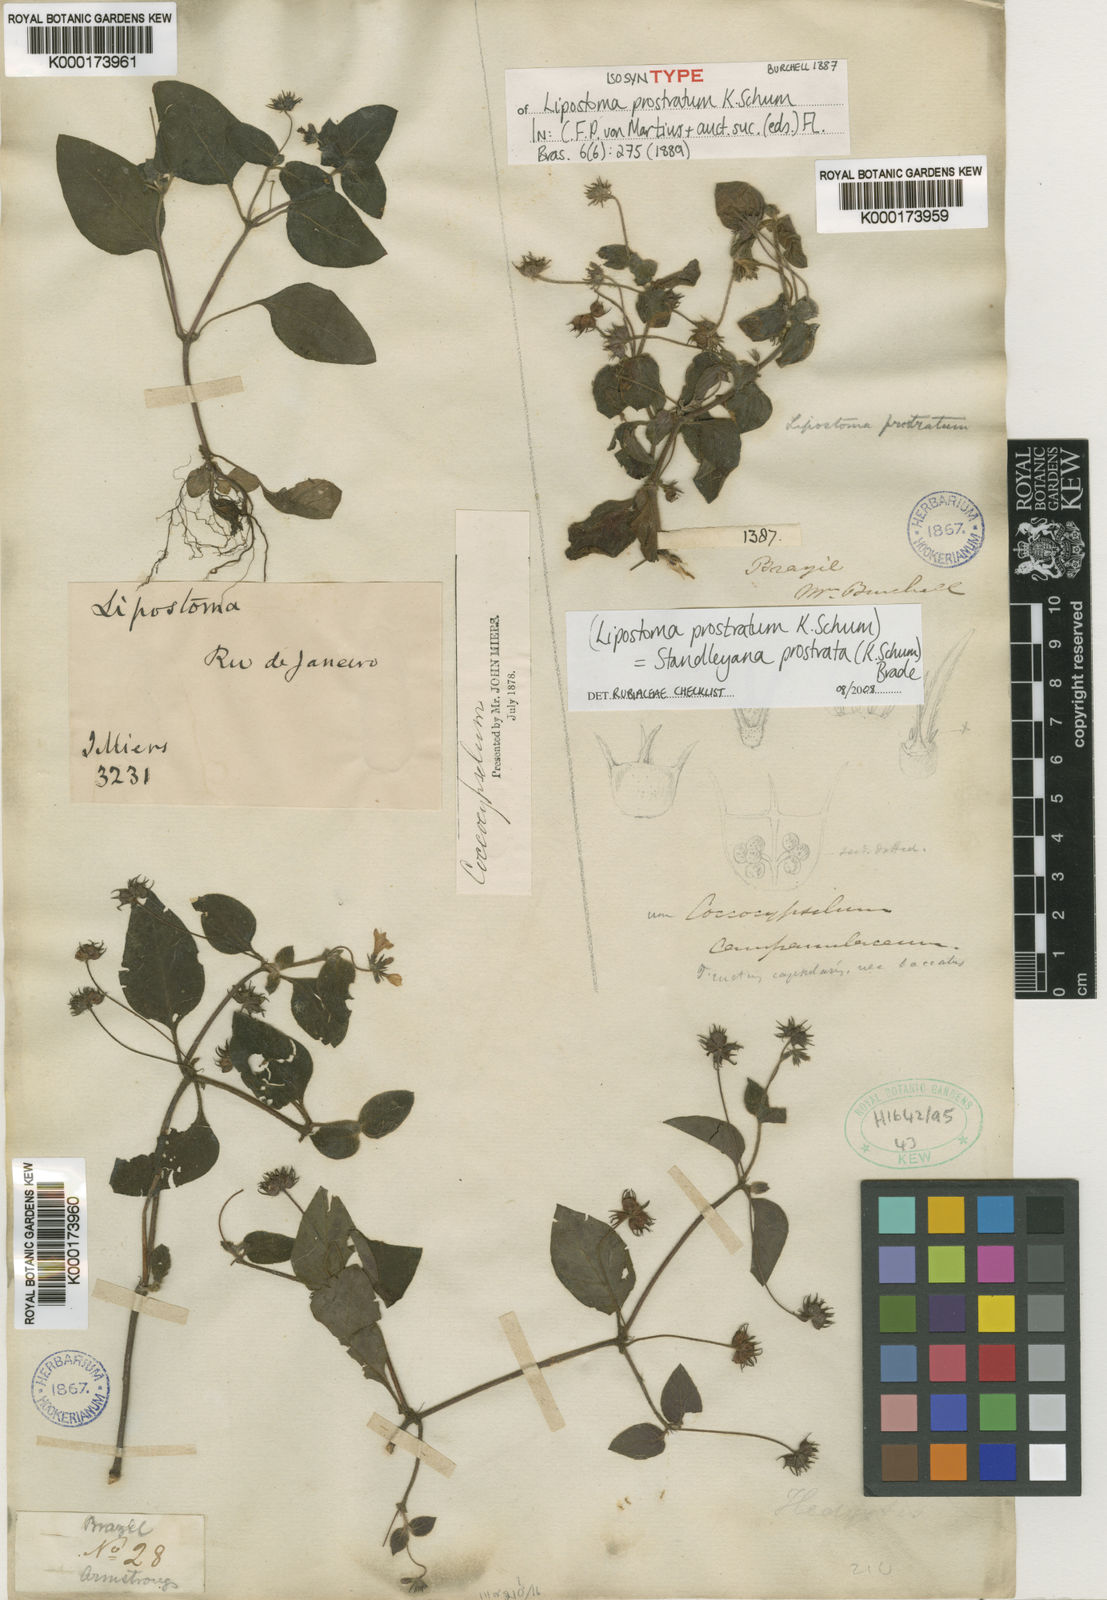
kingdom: Plantae
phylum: Tracheophyta
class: Magnoliopsida
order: Gentianales
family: Rubiaceae
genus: Standleya
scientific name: Standleya prostrata
